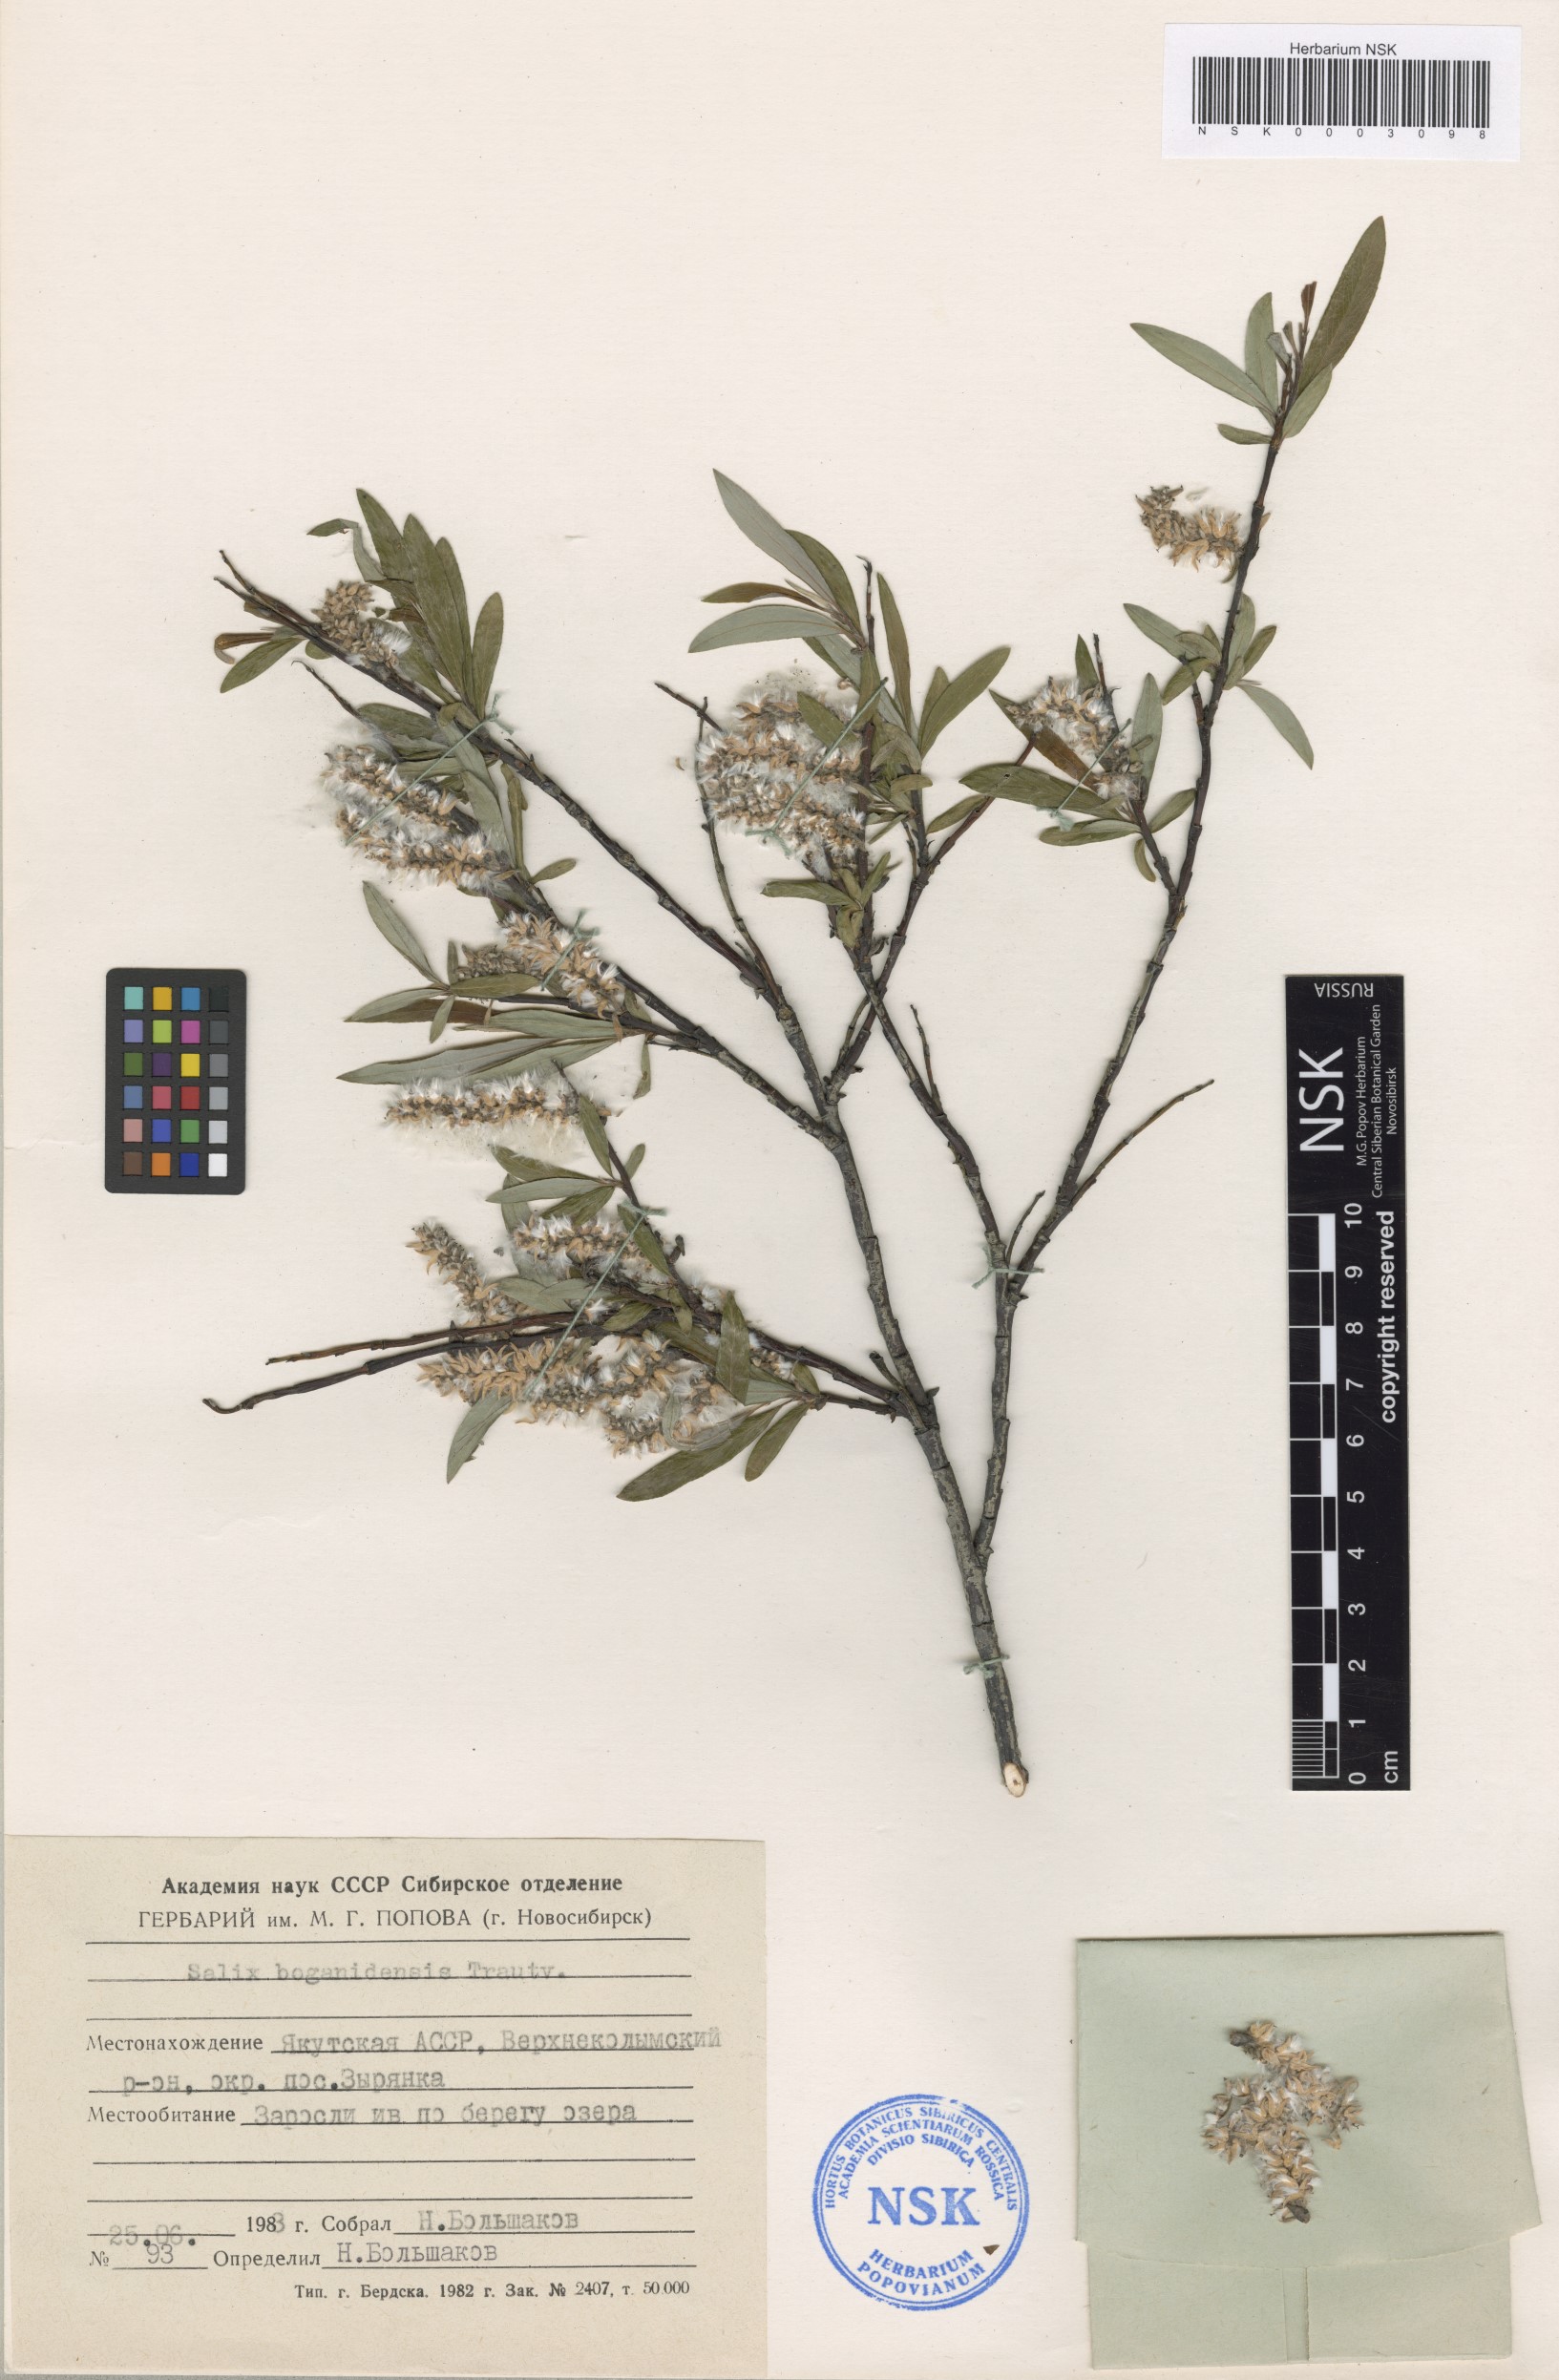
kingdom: Plantae
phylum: Tracheophyta
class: Magnoliopsida
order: Malpighiales
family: Salicaceae
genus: Salix
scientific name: Salix boganidensis
